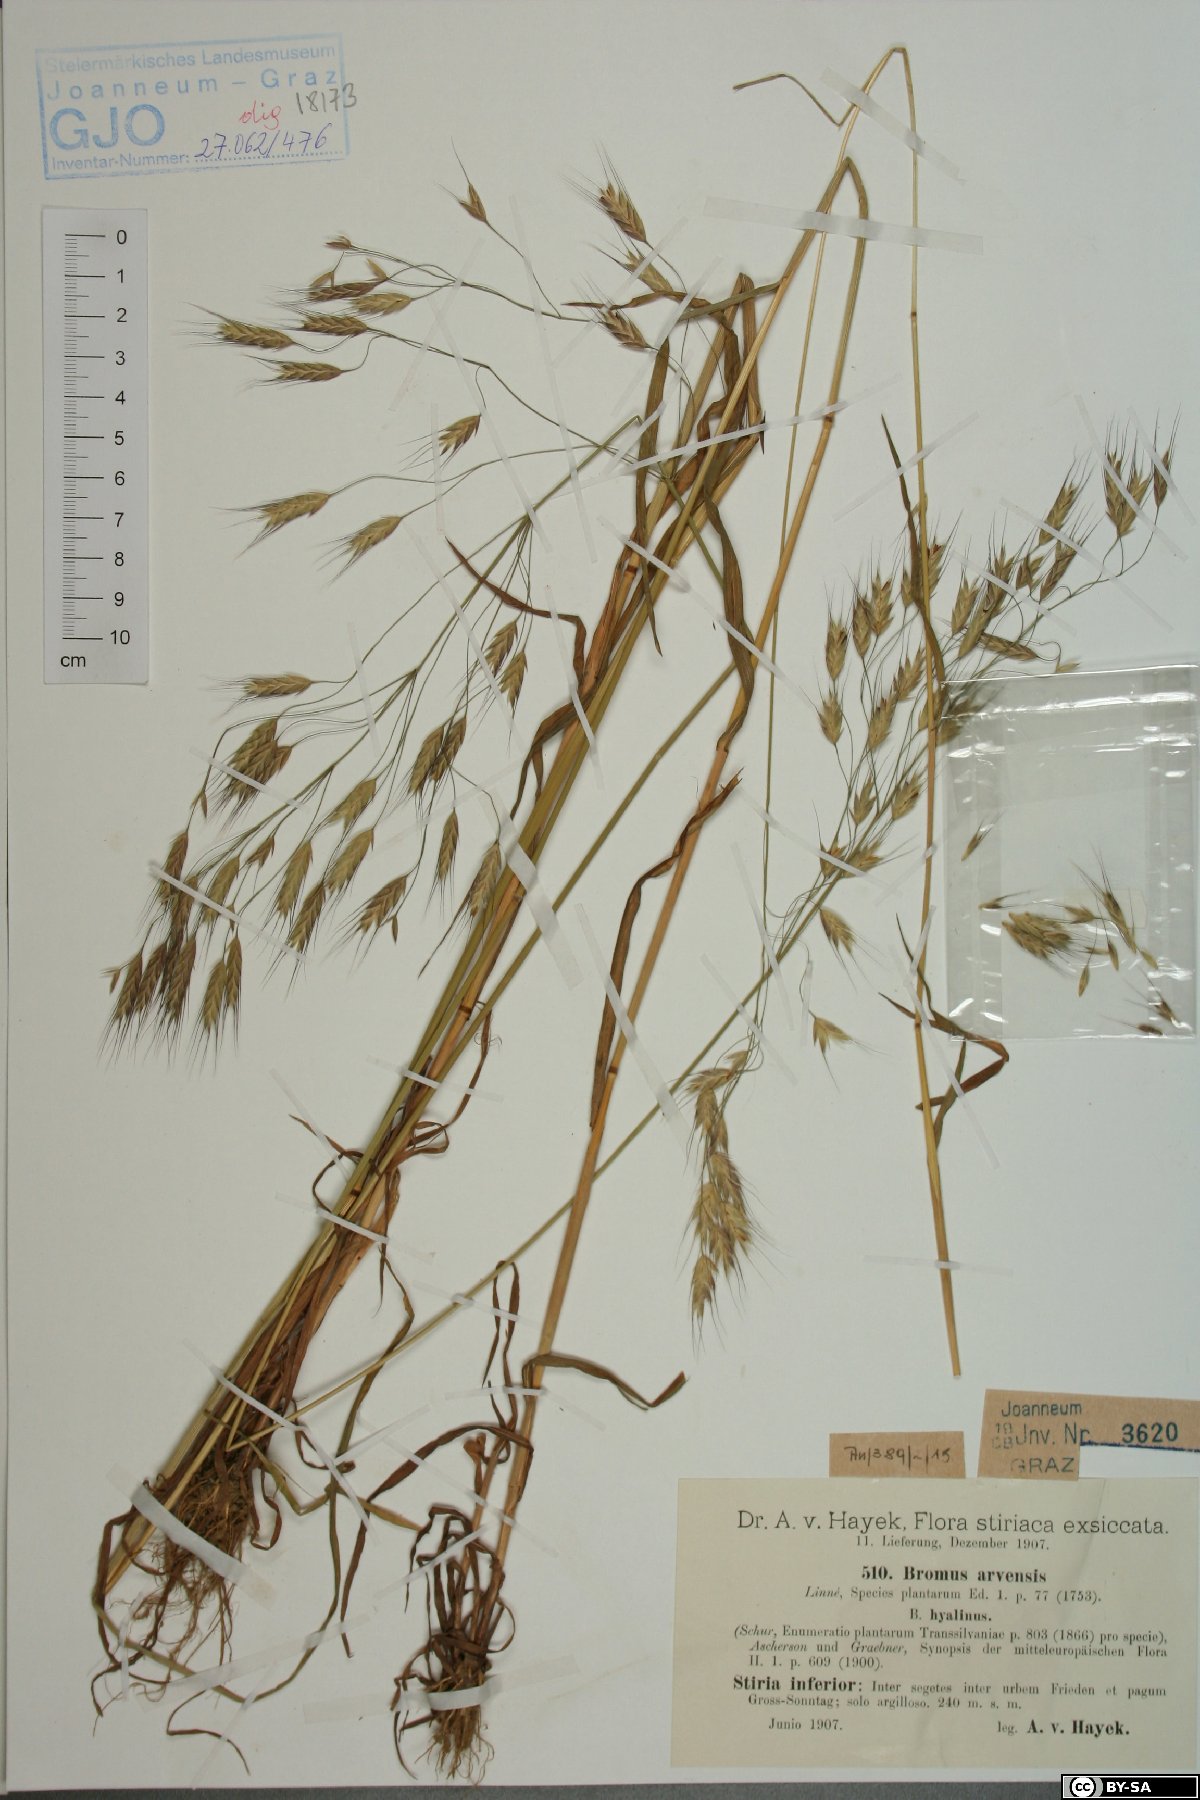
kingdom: Plantae
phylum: Tracheophyta
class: Liliopsida
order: Poales
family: Poaceae
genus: Bromus
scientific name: Bromus arvensis
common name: Field brome
